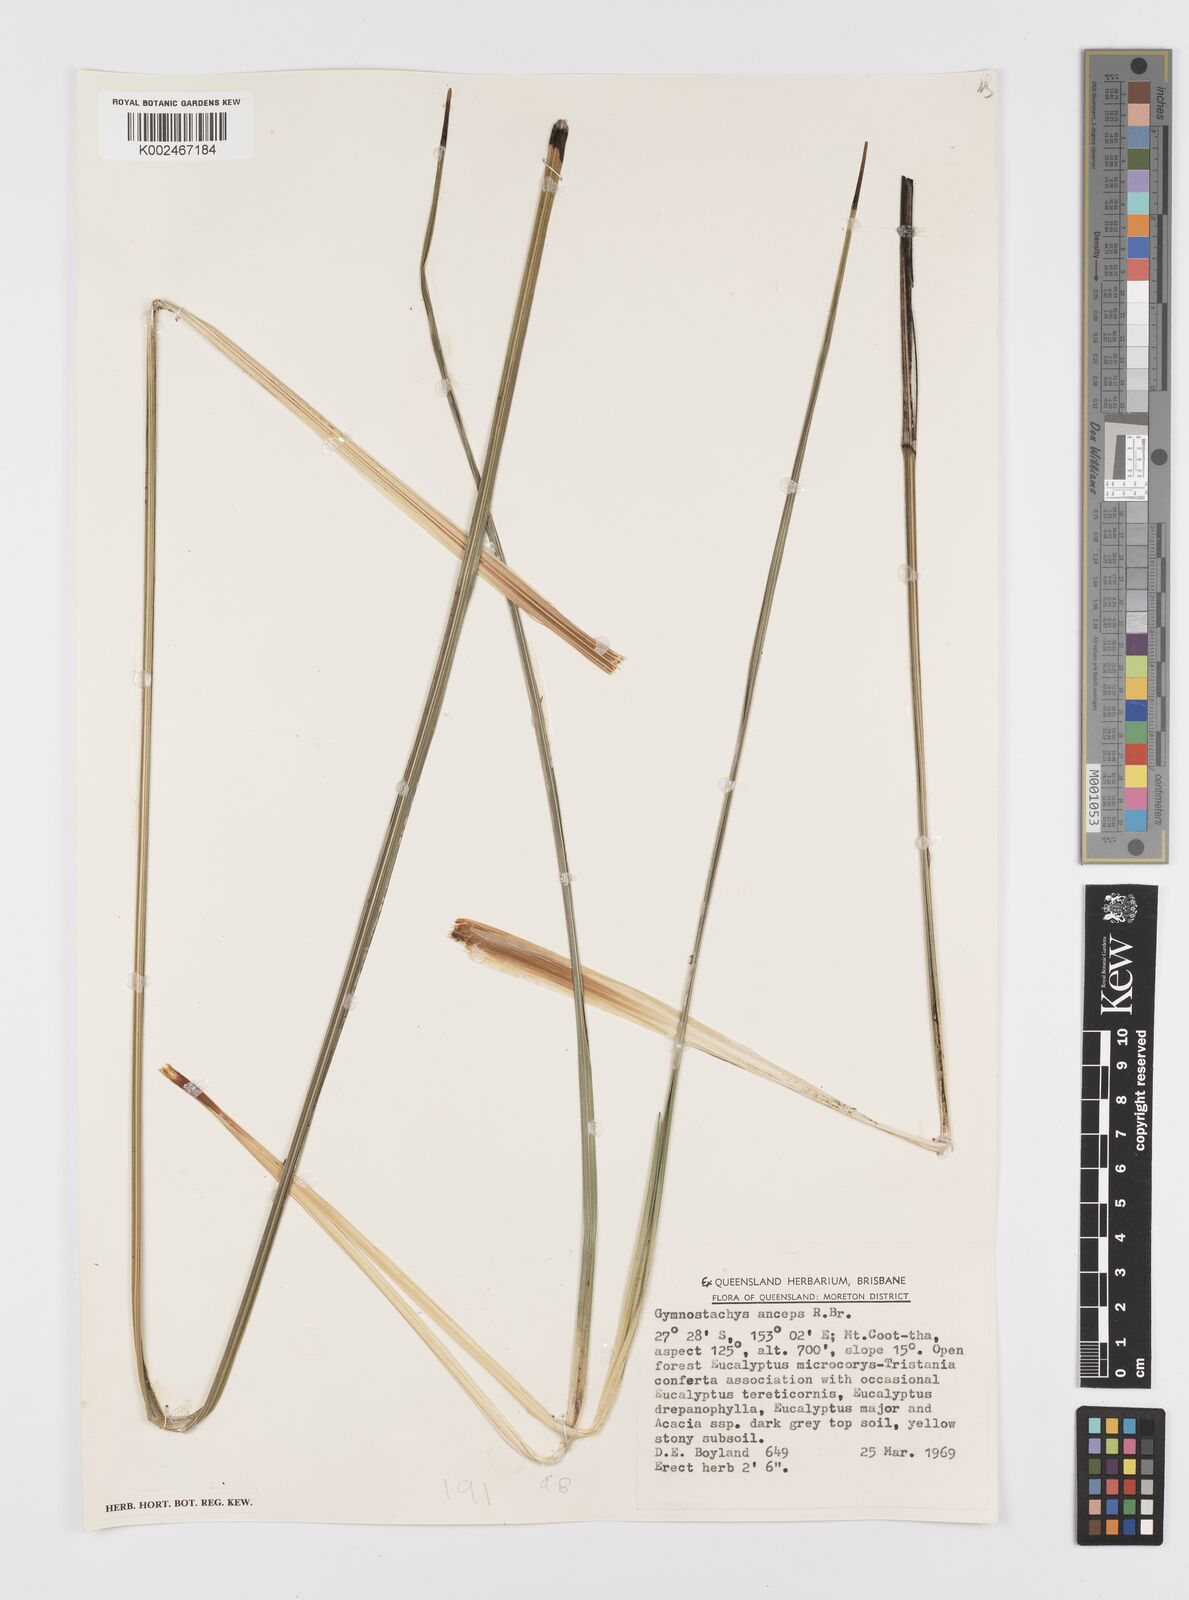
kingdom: Plantae
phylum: Tracheophyta
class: Liliopsida
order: Alismatales
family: Araceae
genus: Gymnostachys
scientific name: Gymnostachys anceps
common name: Settler's-flax
